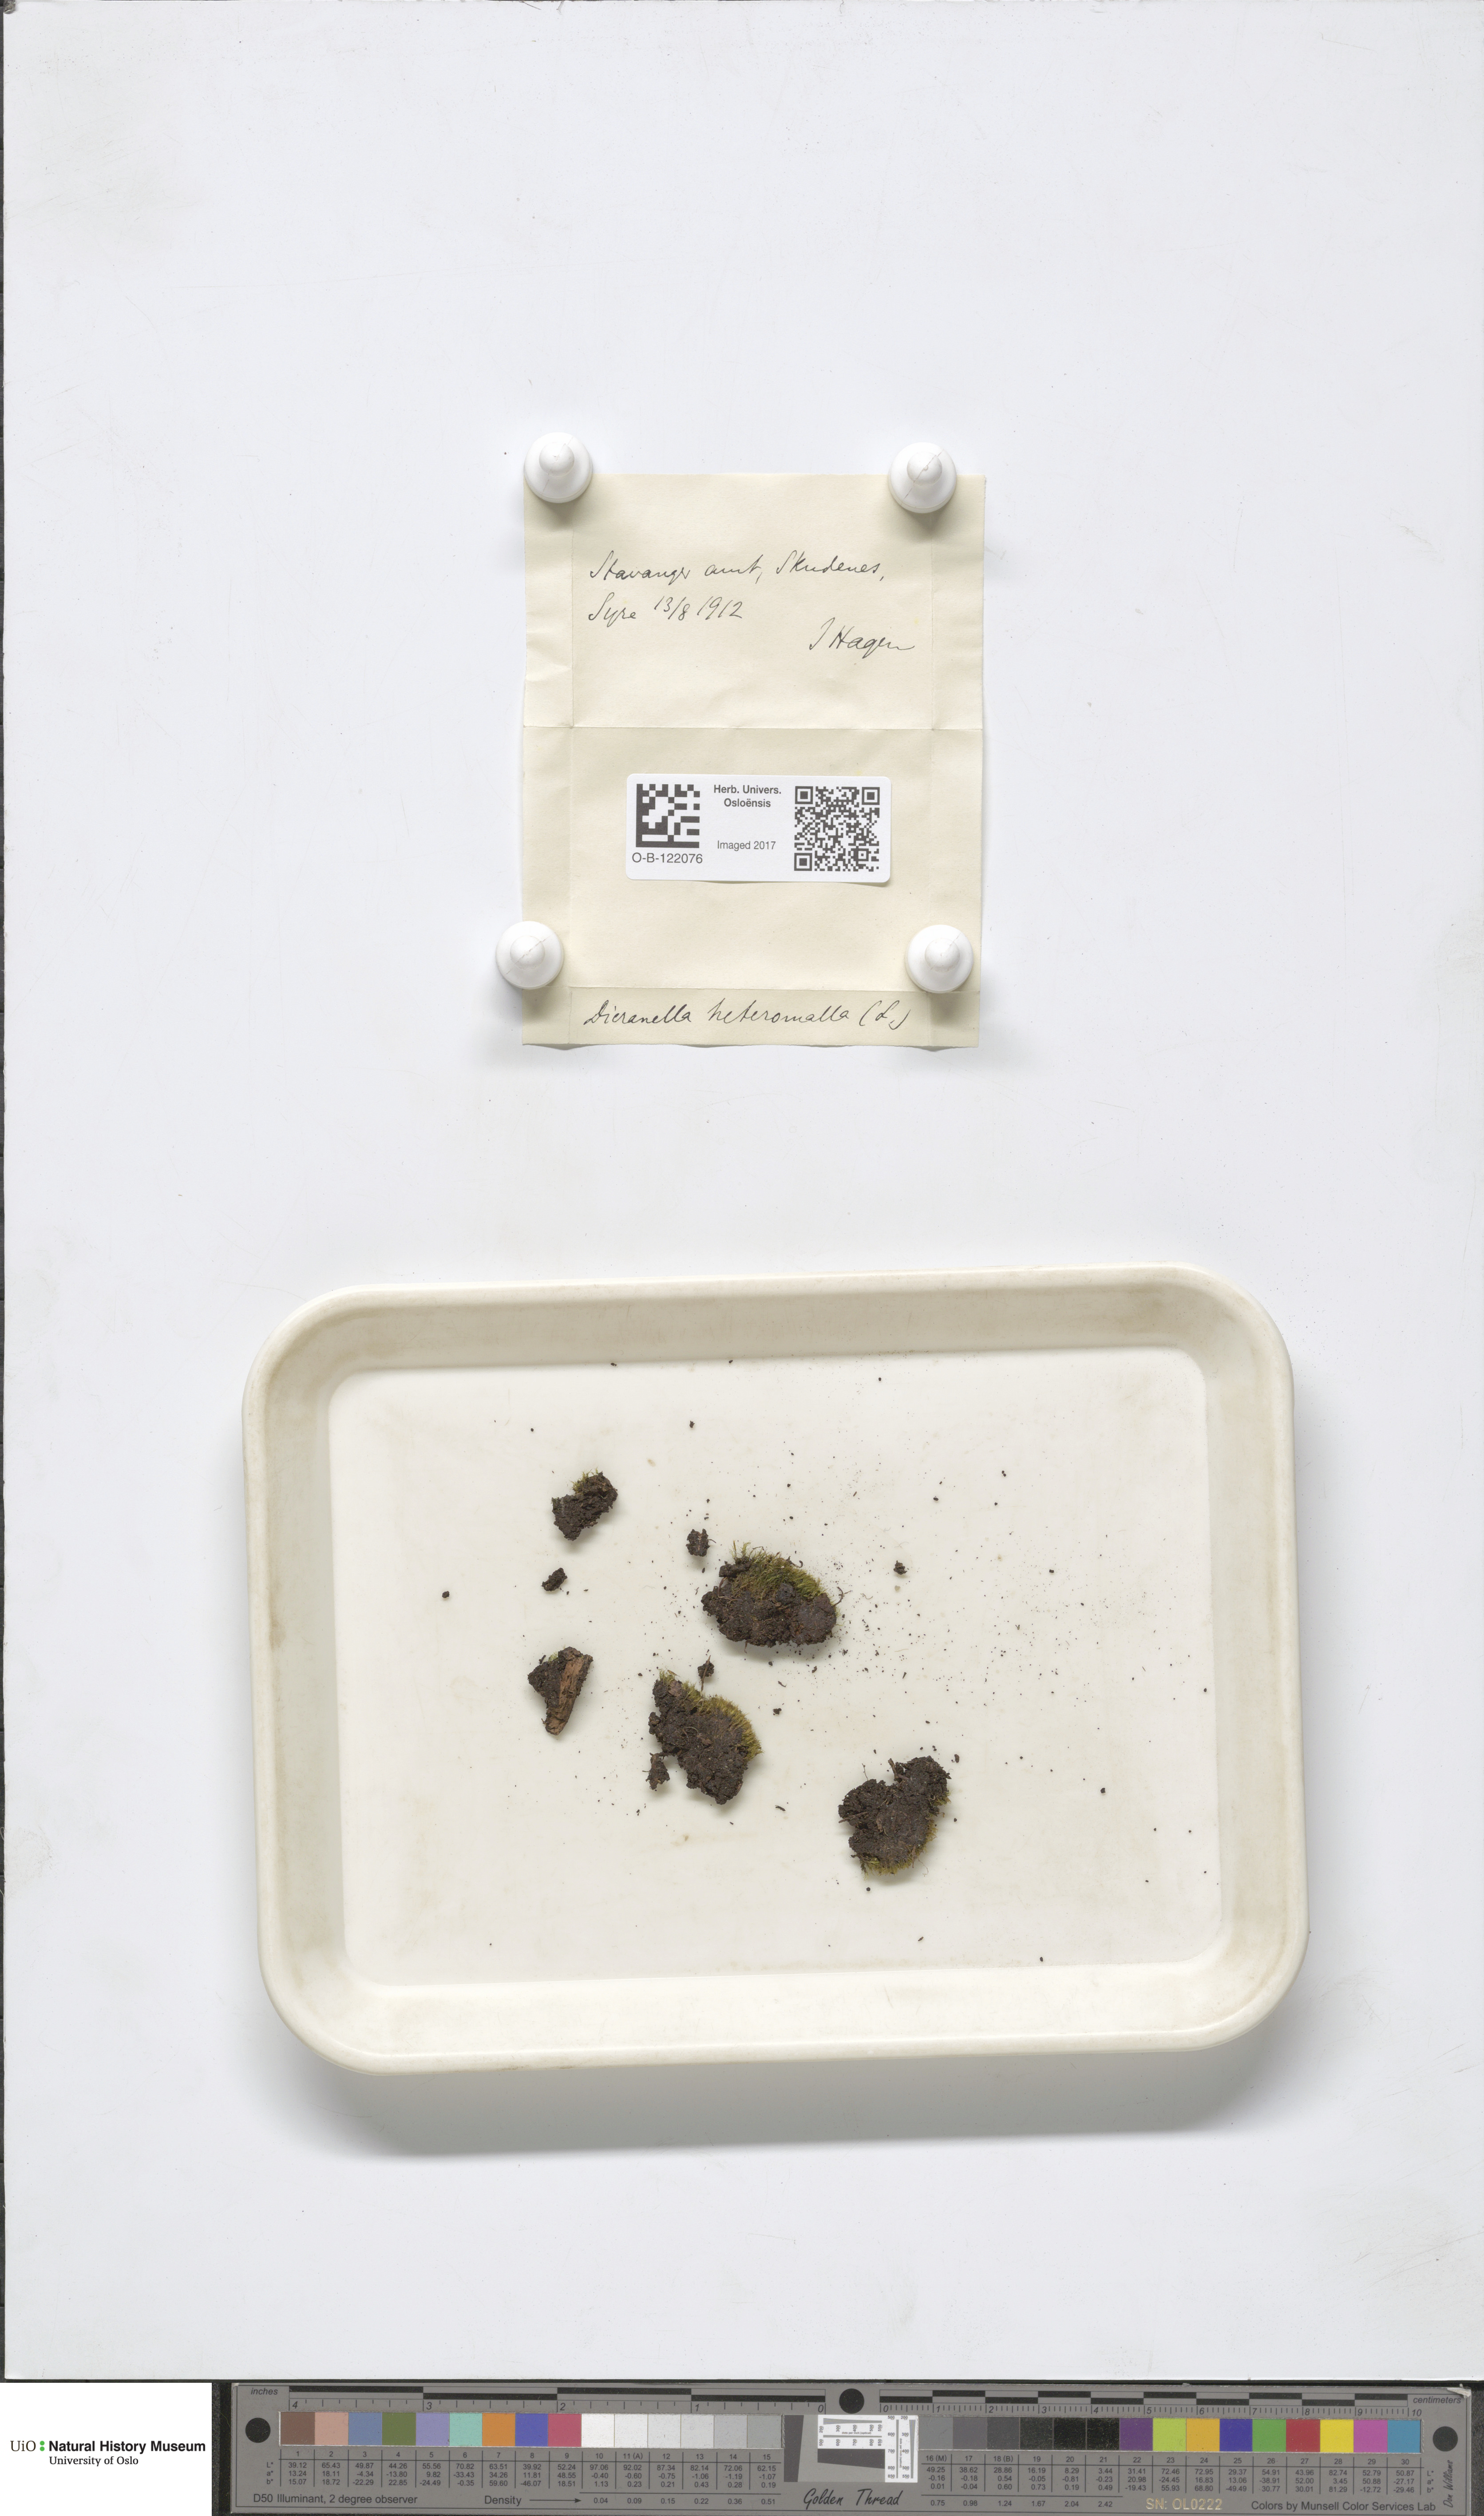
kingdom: Plantae
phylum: Bryophyta
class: Bryopsida
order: Dicranales
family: Dicranellaceae
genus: Dicranella
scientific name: Dicranella heteromalla
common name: Silky forklet moss
